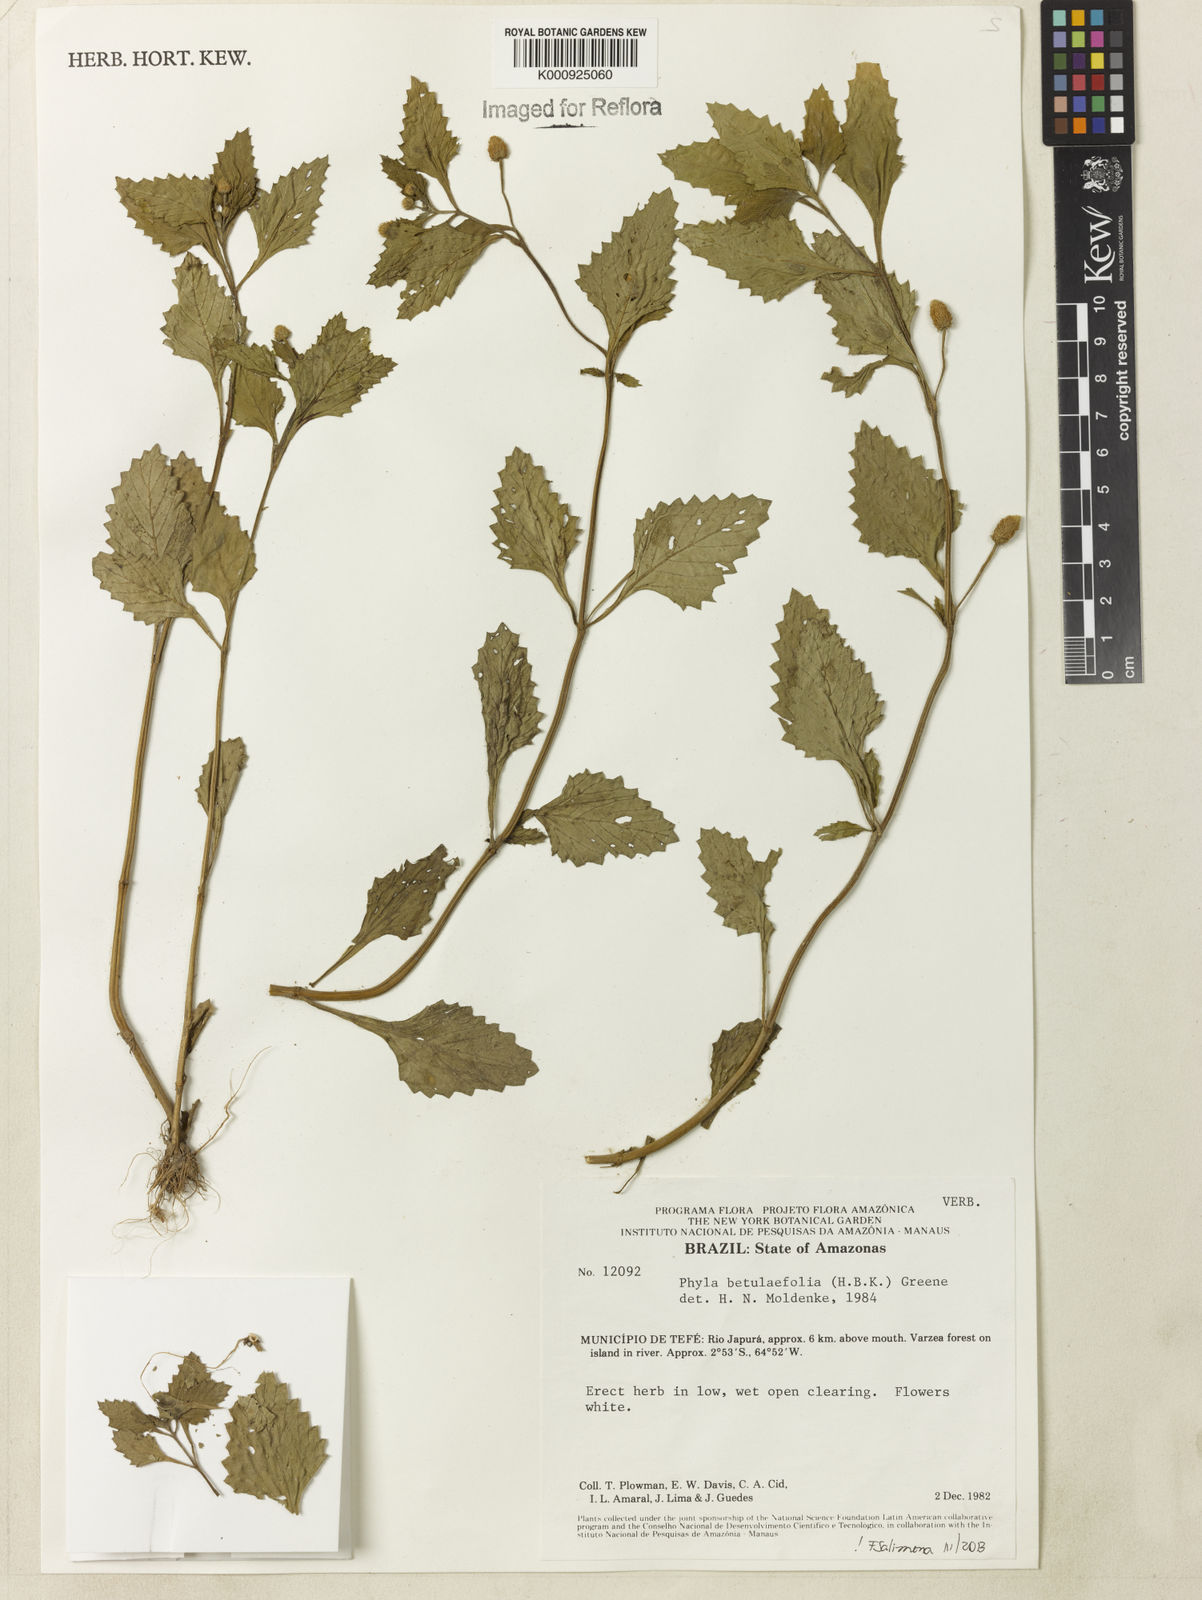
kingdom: Plantae
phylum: Tracheophyta
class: Magnoliopsida
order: Lamiales
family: Verbenaceae
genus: Phyla
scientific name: Phyla betulifolia
